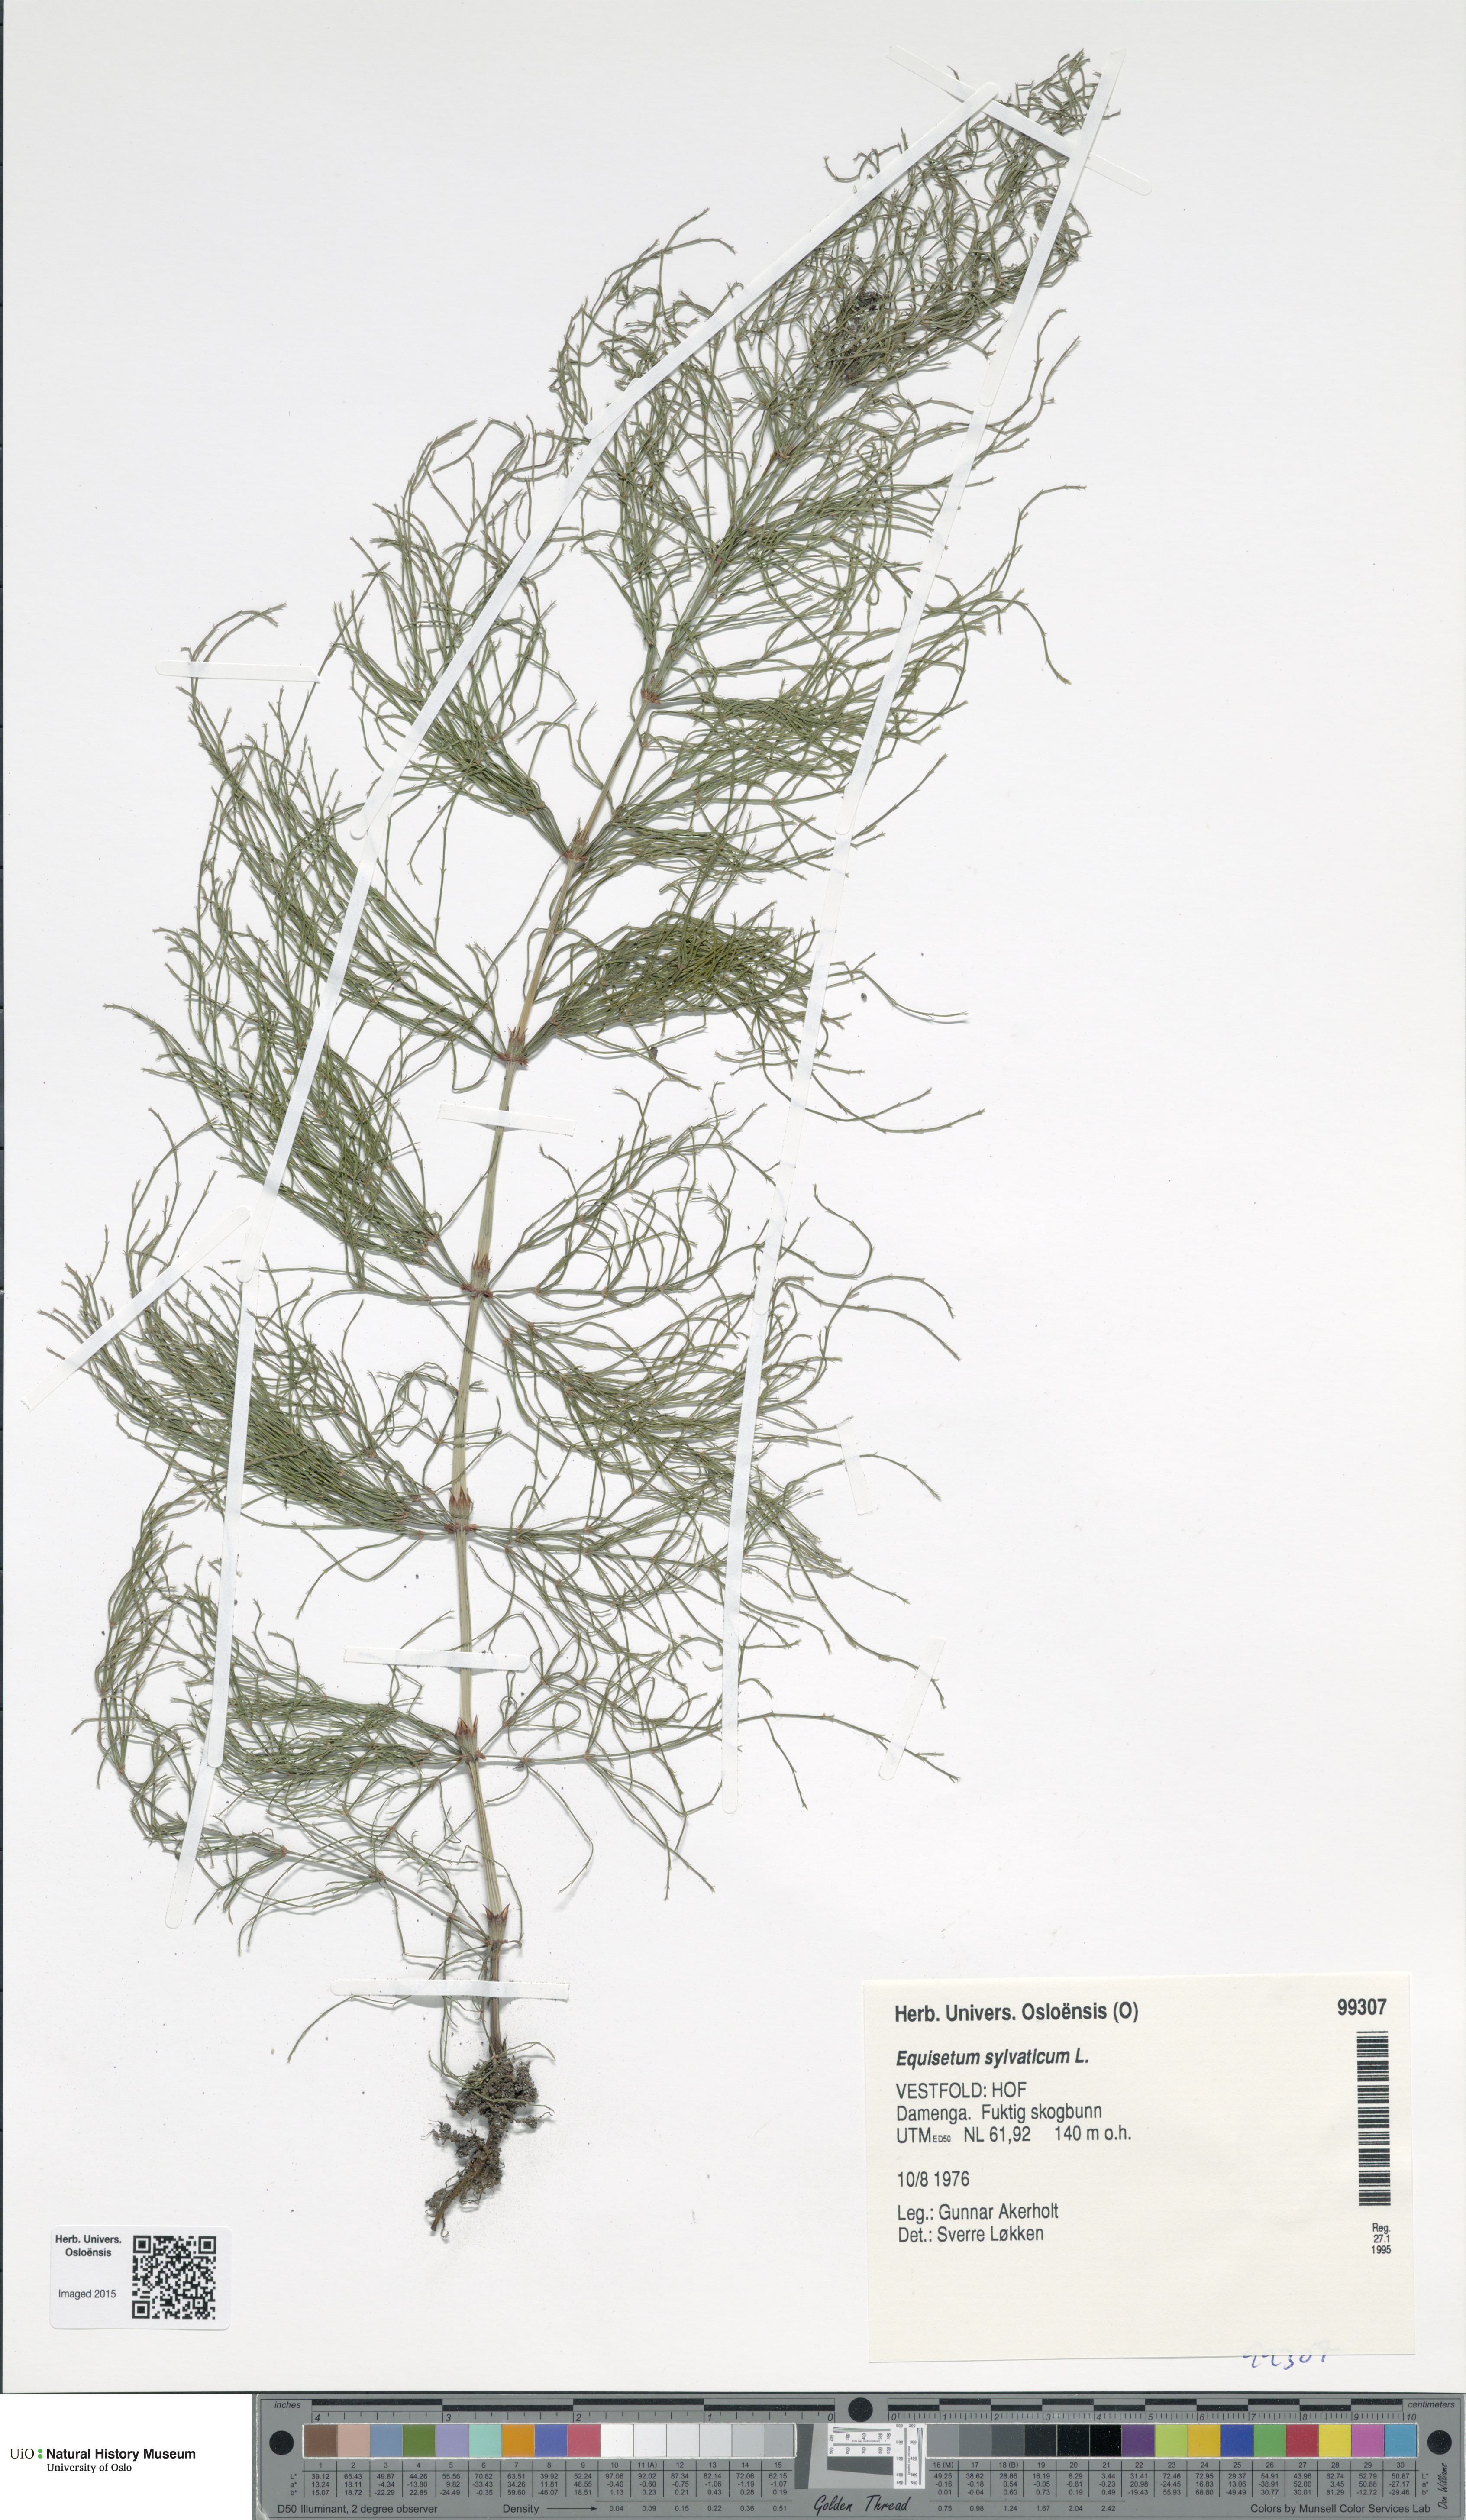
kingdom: Plantae
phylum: Tracheophyta
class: Polypodiopsida
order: Equisetales
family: Equisetaceae
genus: Equisetum
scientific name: Equisetum sylvaticum
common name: Wood horsetail
